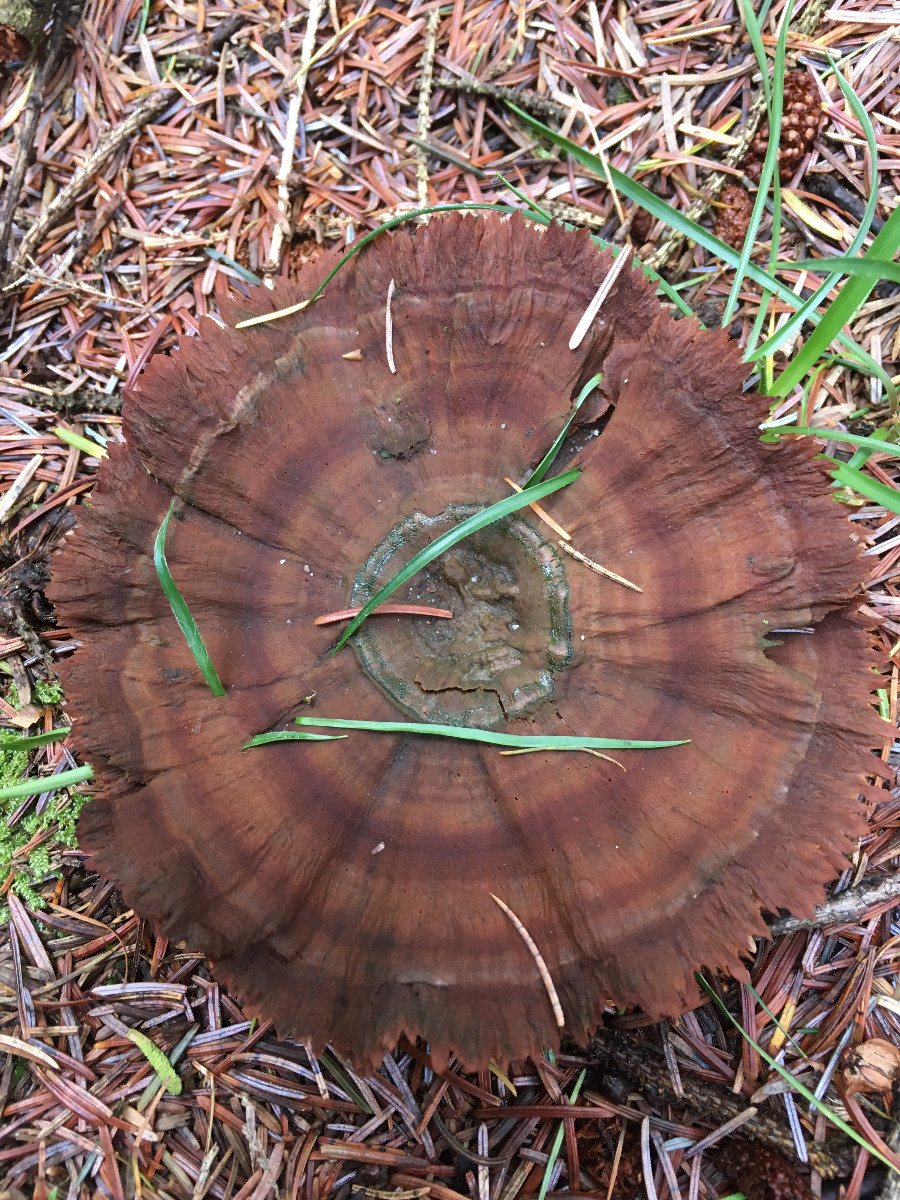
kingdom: Fungi
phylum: Basidiomycota
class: Agaricomycetes
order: Hymenochaetales
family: Hymenochaetaceae
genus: Coltricia
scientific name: Coltricia perennis
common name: almindelig sandporesvamp
